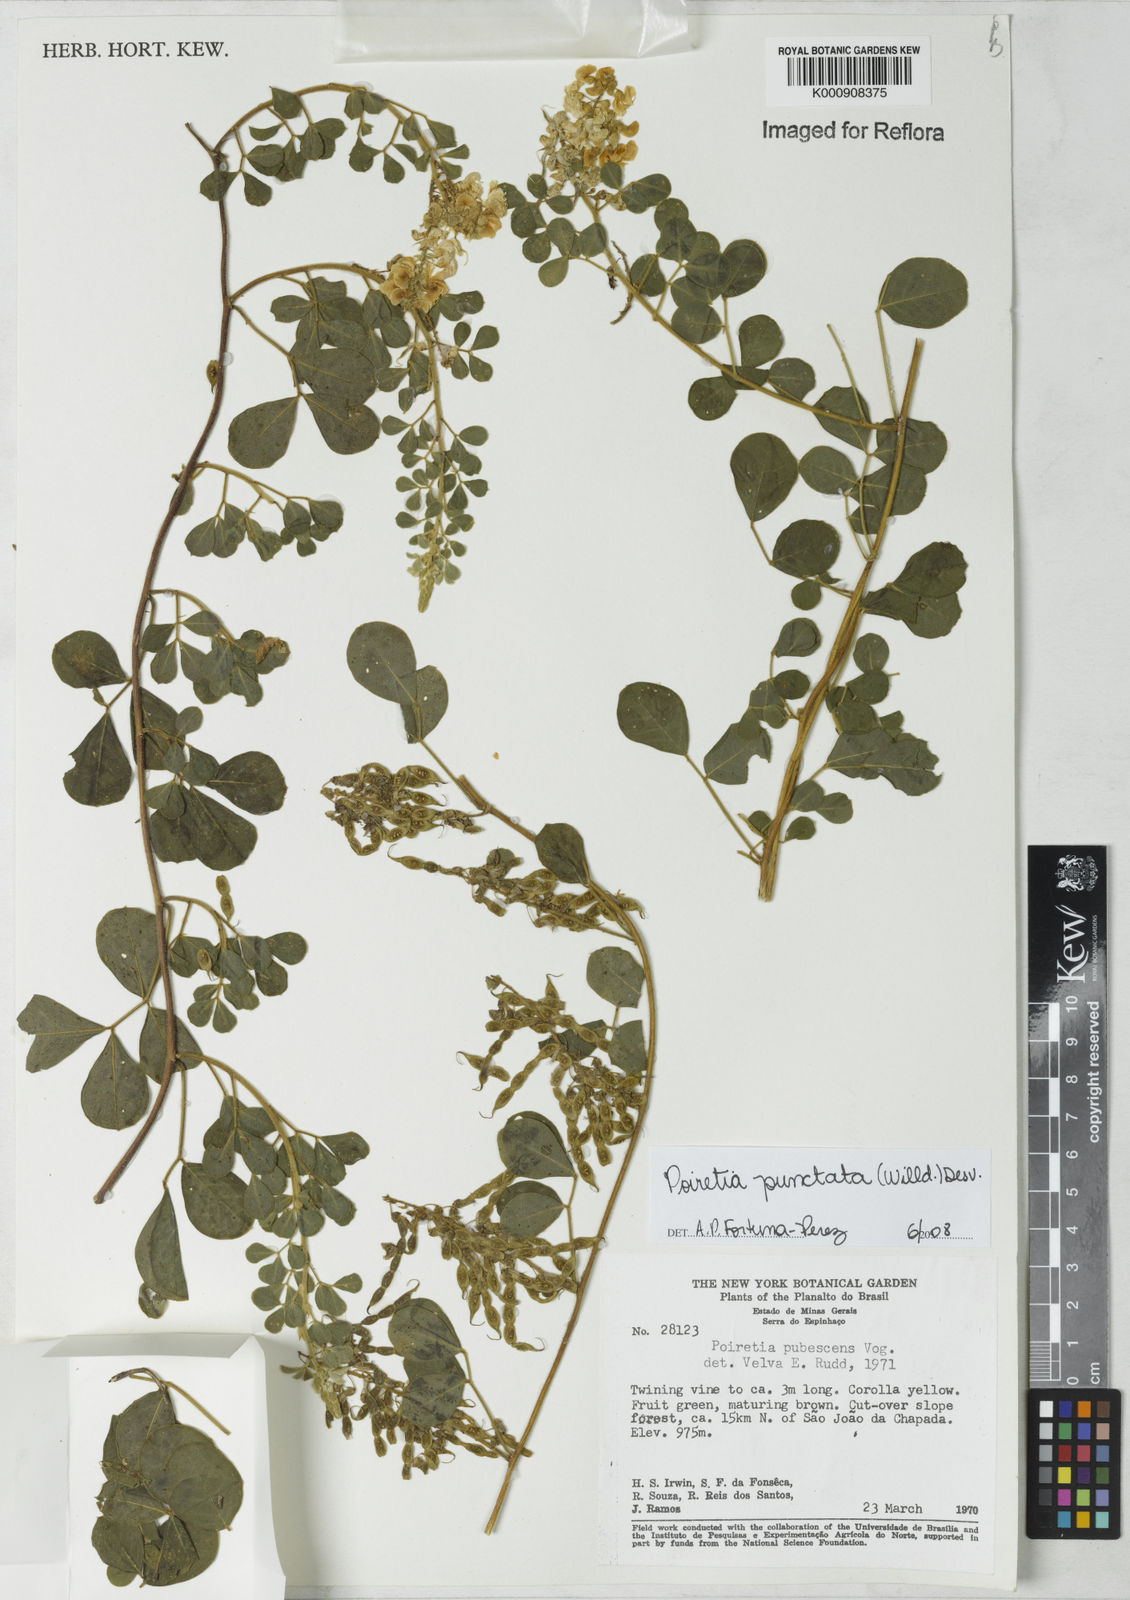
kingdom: Plantae
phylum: Tracheophyta
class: Magnoliopsida
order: Fabales
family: Fabaceae
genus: Poiretia
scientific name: Poiretia punctata
